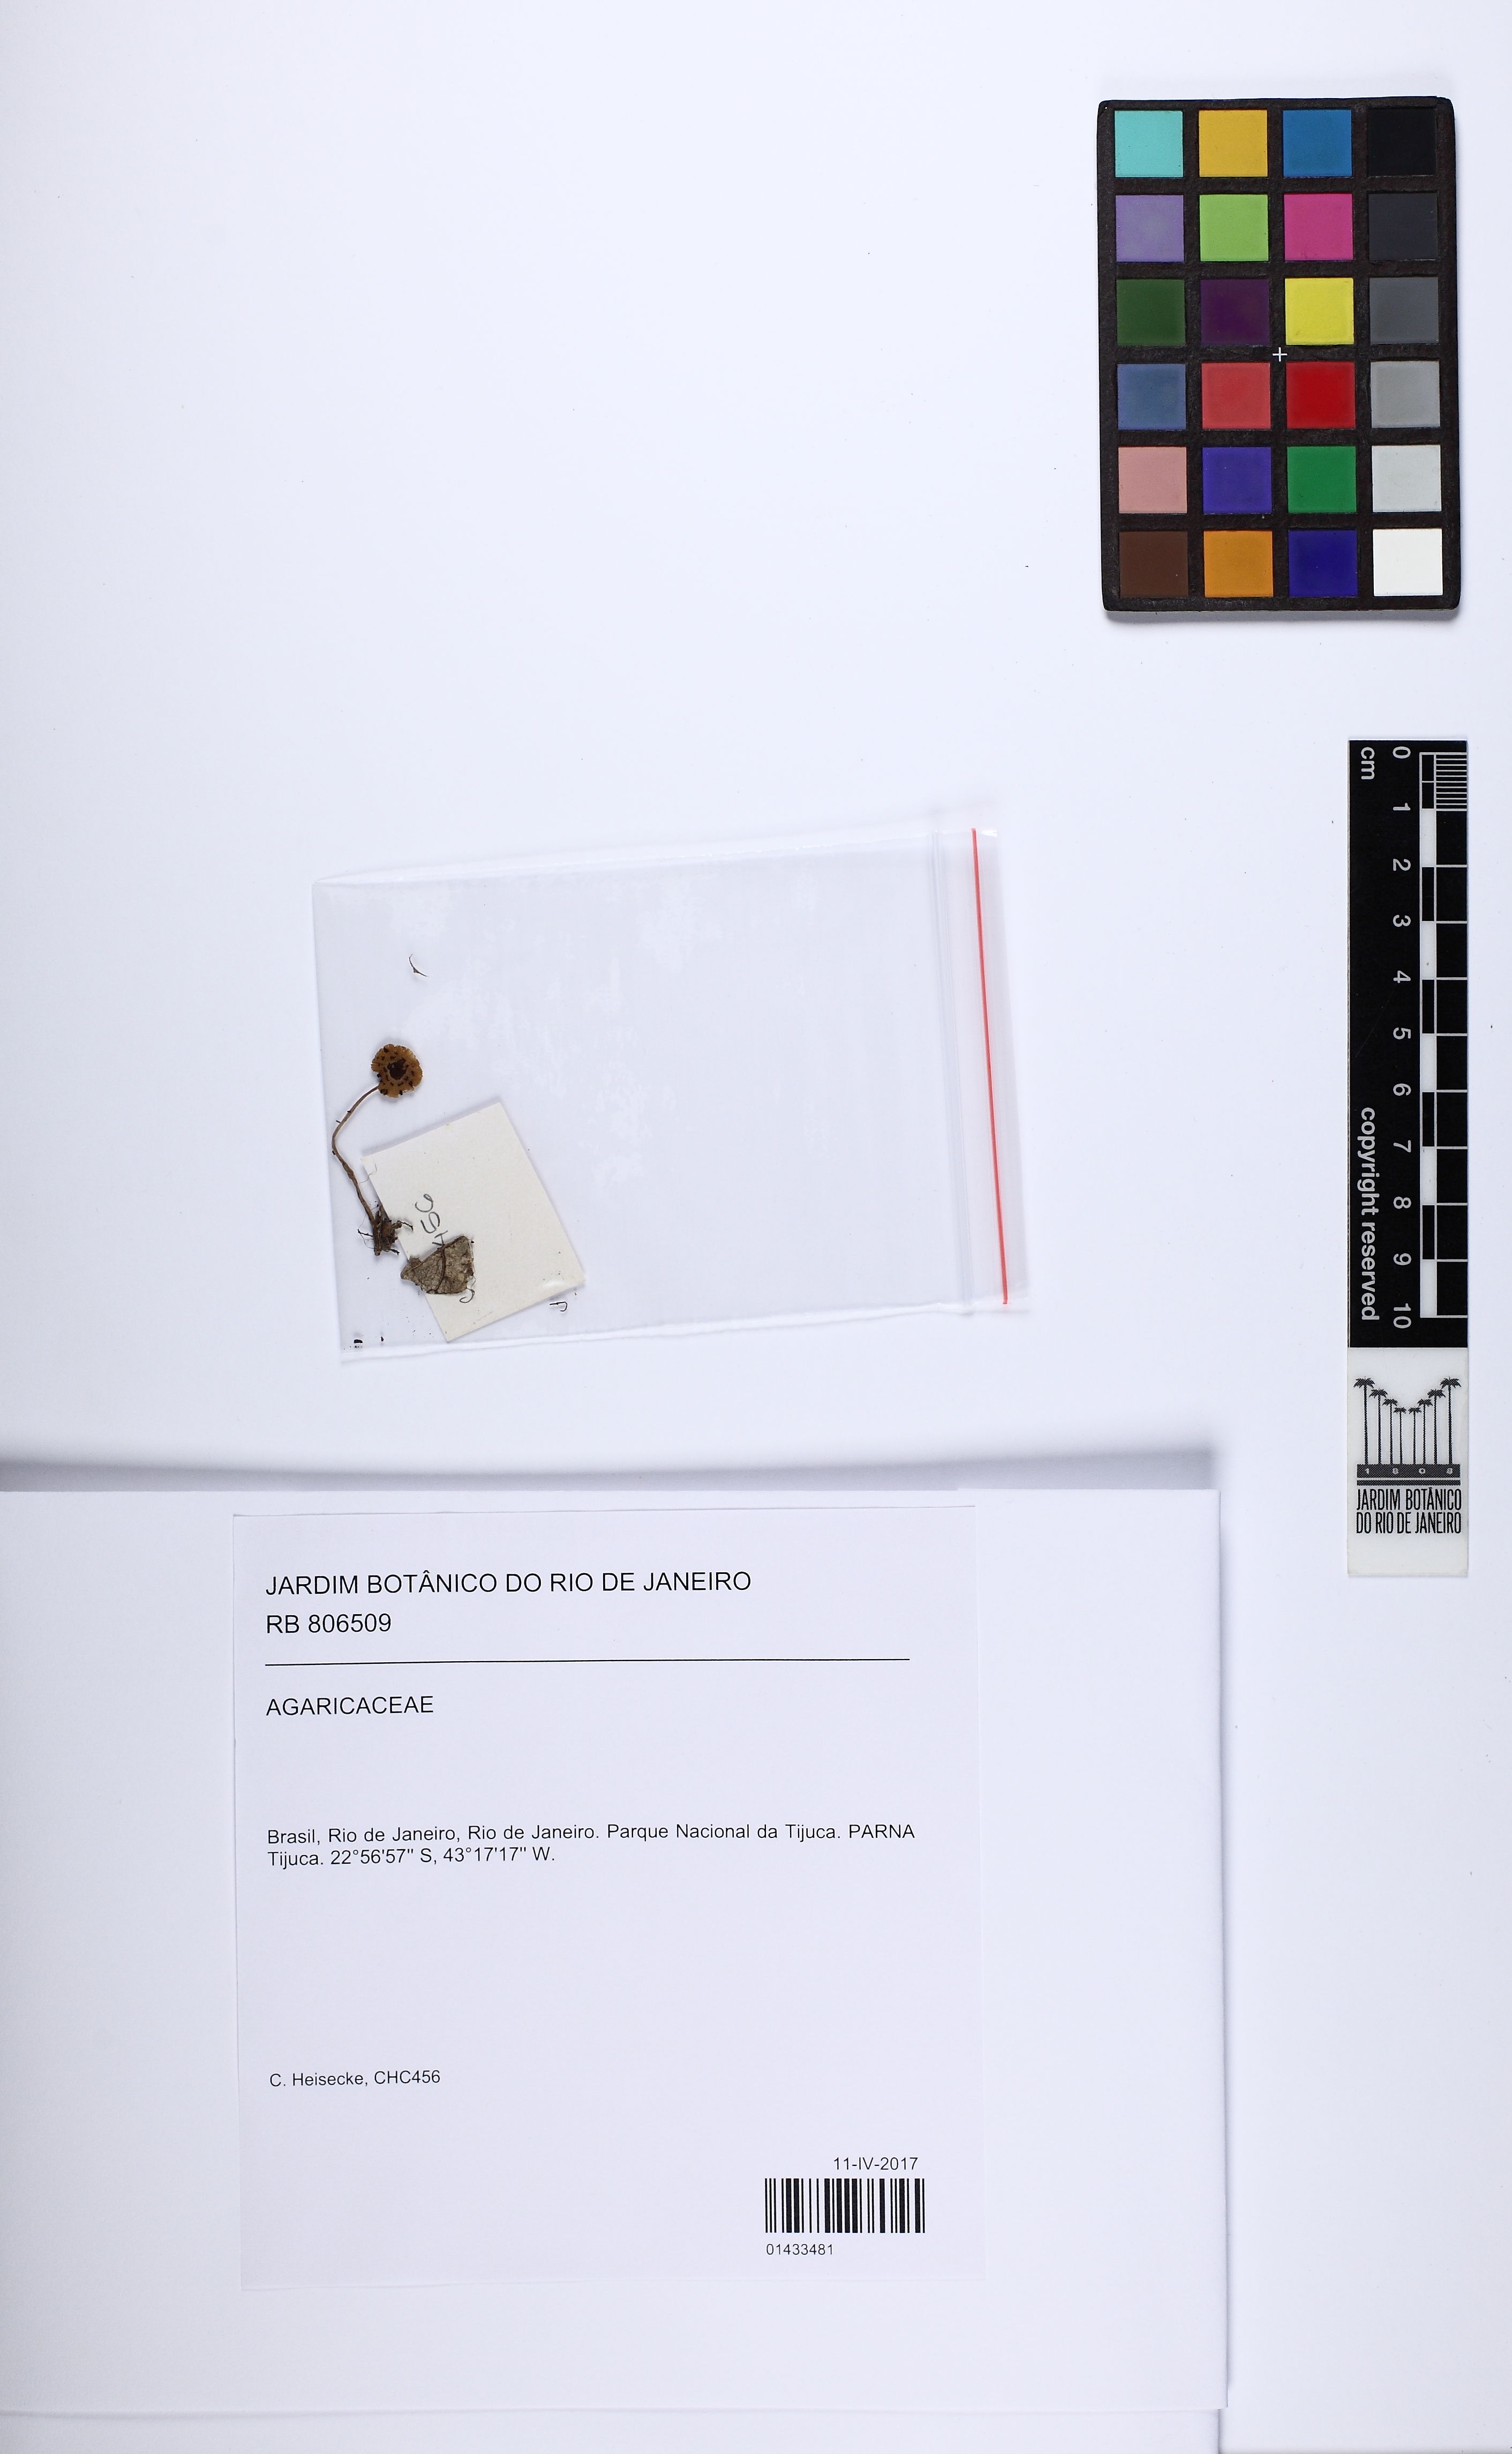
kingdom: Fungi
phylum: Basidiomycota
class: Agaricomycetes
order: Agaricales
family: Agaricaceae
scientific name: Agaricaceae
